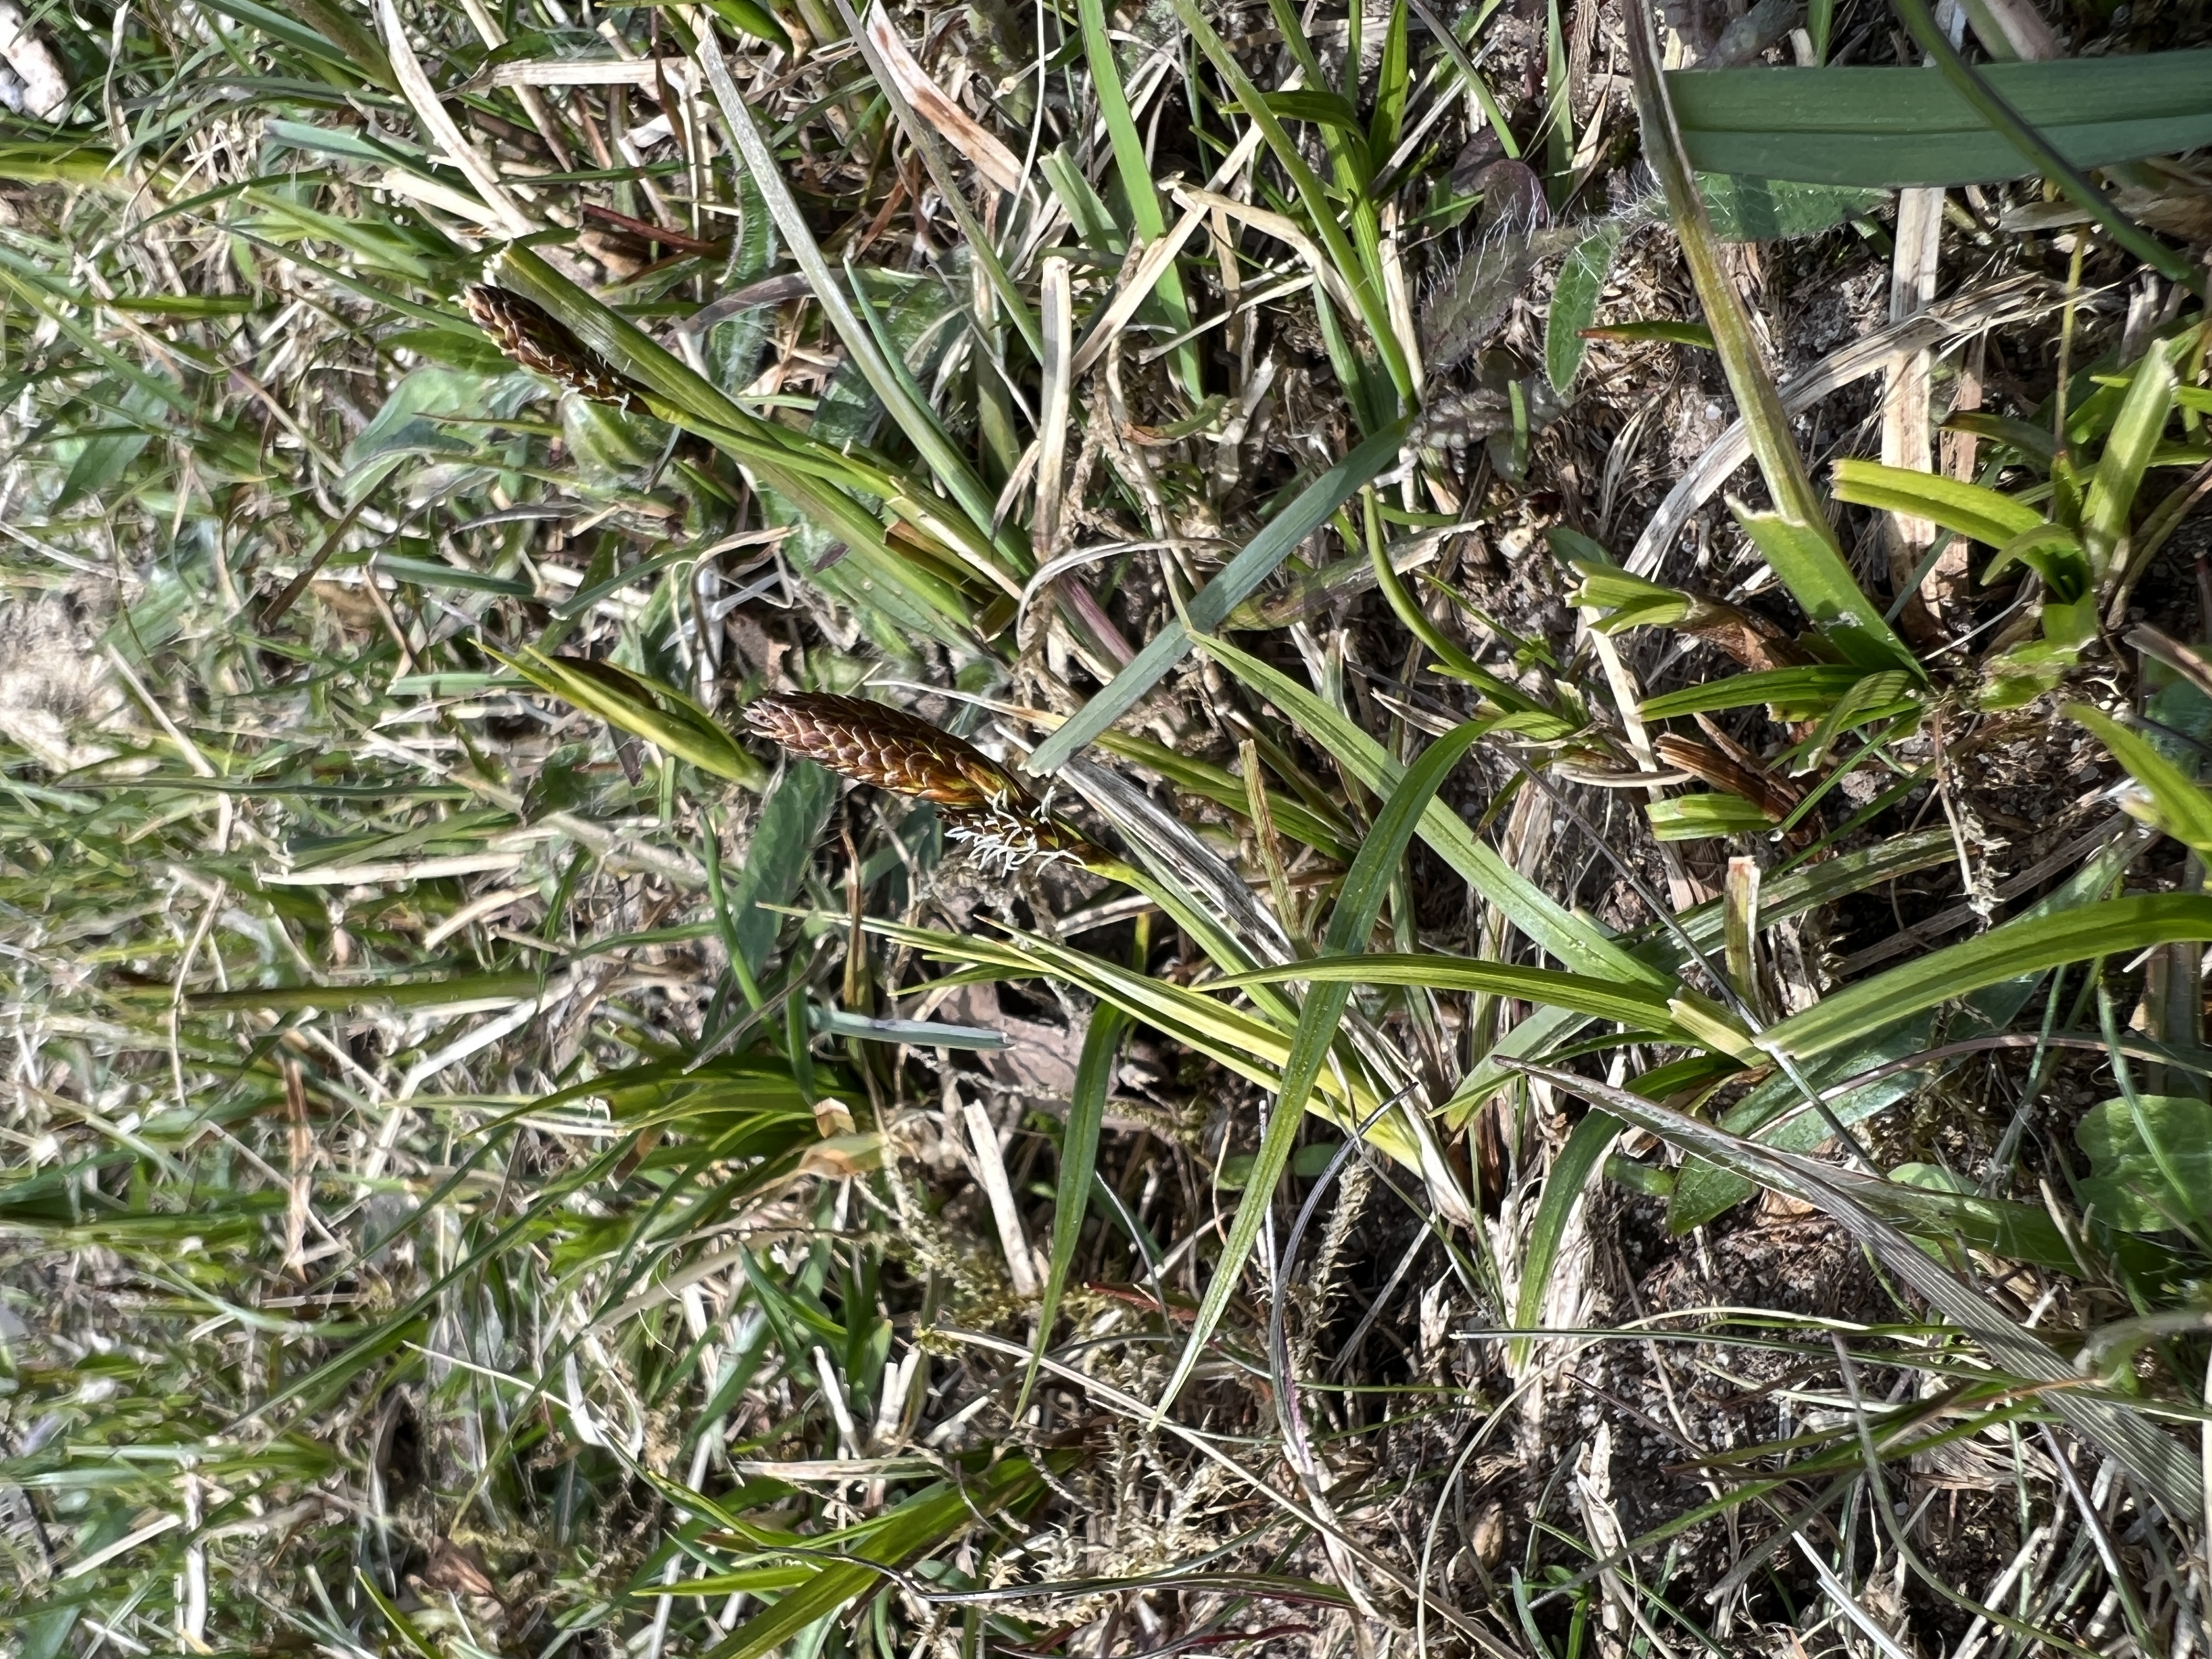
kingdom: Plantae
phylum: Tracheophyta
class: Liliopsida
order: Poales
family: Cyperaceae
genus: Carex
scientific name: Carex caryophyllea
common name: Vår-star
